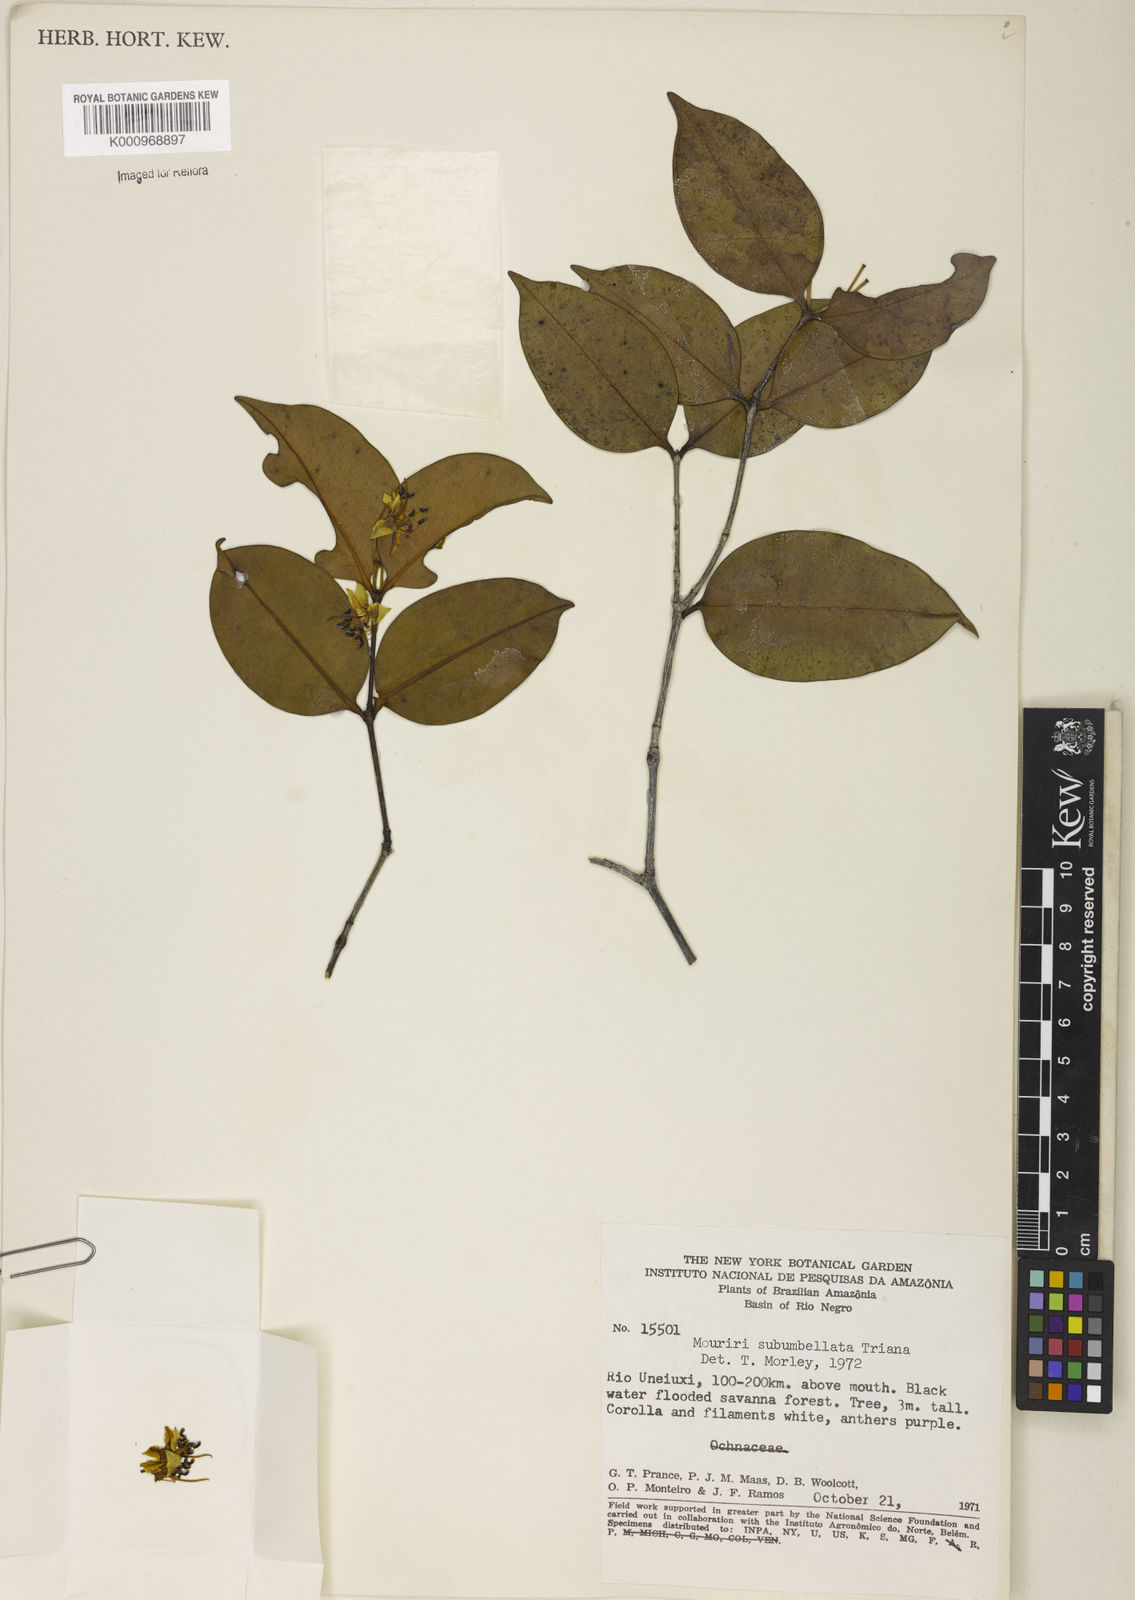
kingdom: Plantae
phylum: Tracheophyta
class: Magnoliopsida
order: Myrtales
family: Melastomataceae
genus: Mouriri
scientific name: Mouriri subumbellata
